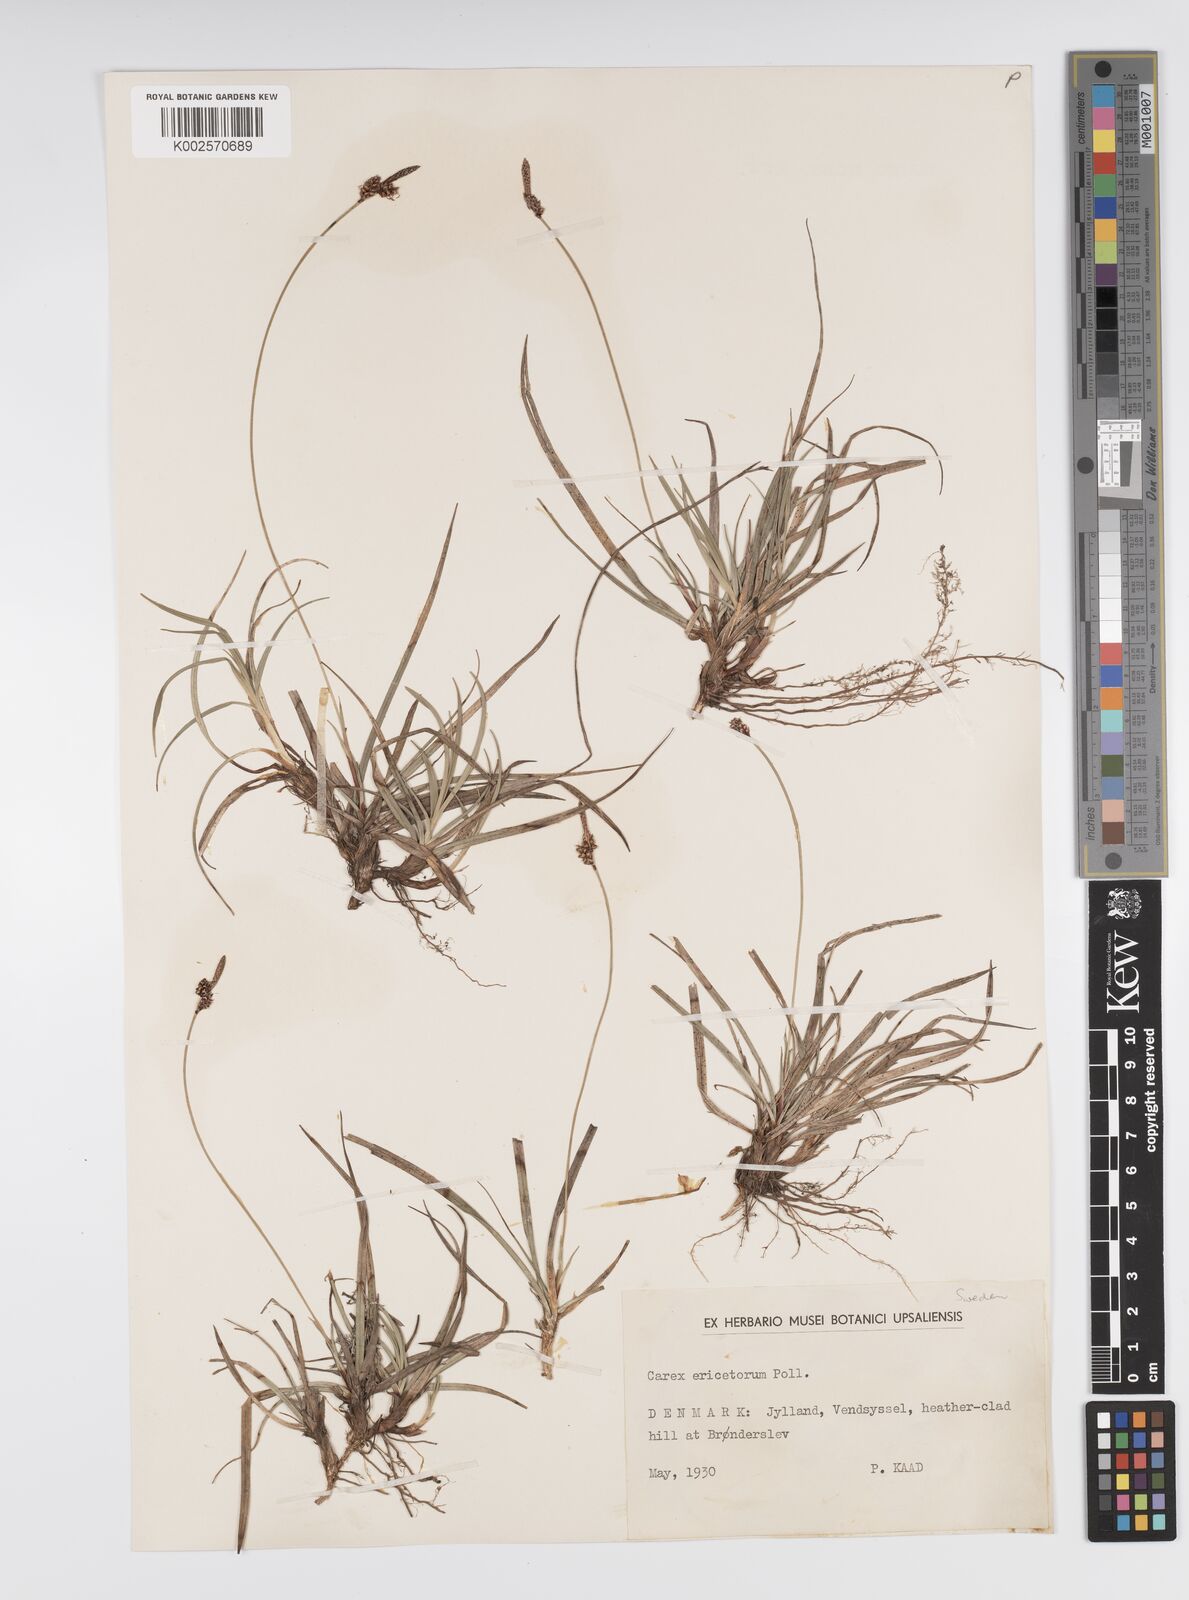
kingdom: Plantae
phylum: Tracheophyta
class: Liliopsida
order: Poales
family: Cyperaceae
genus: Carex
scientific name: Carex ericetorum
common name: Rare spring-sedge
